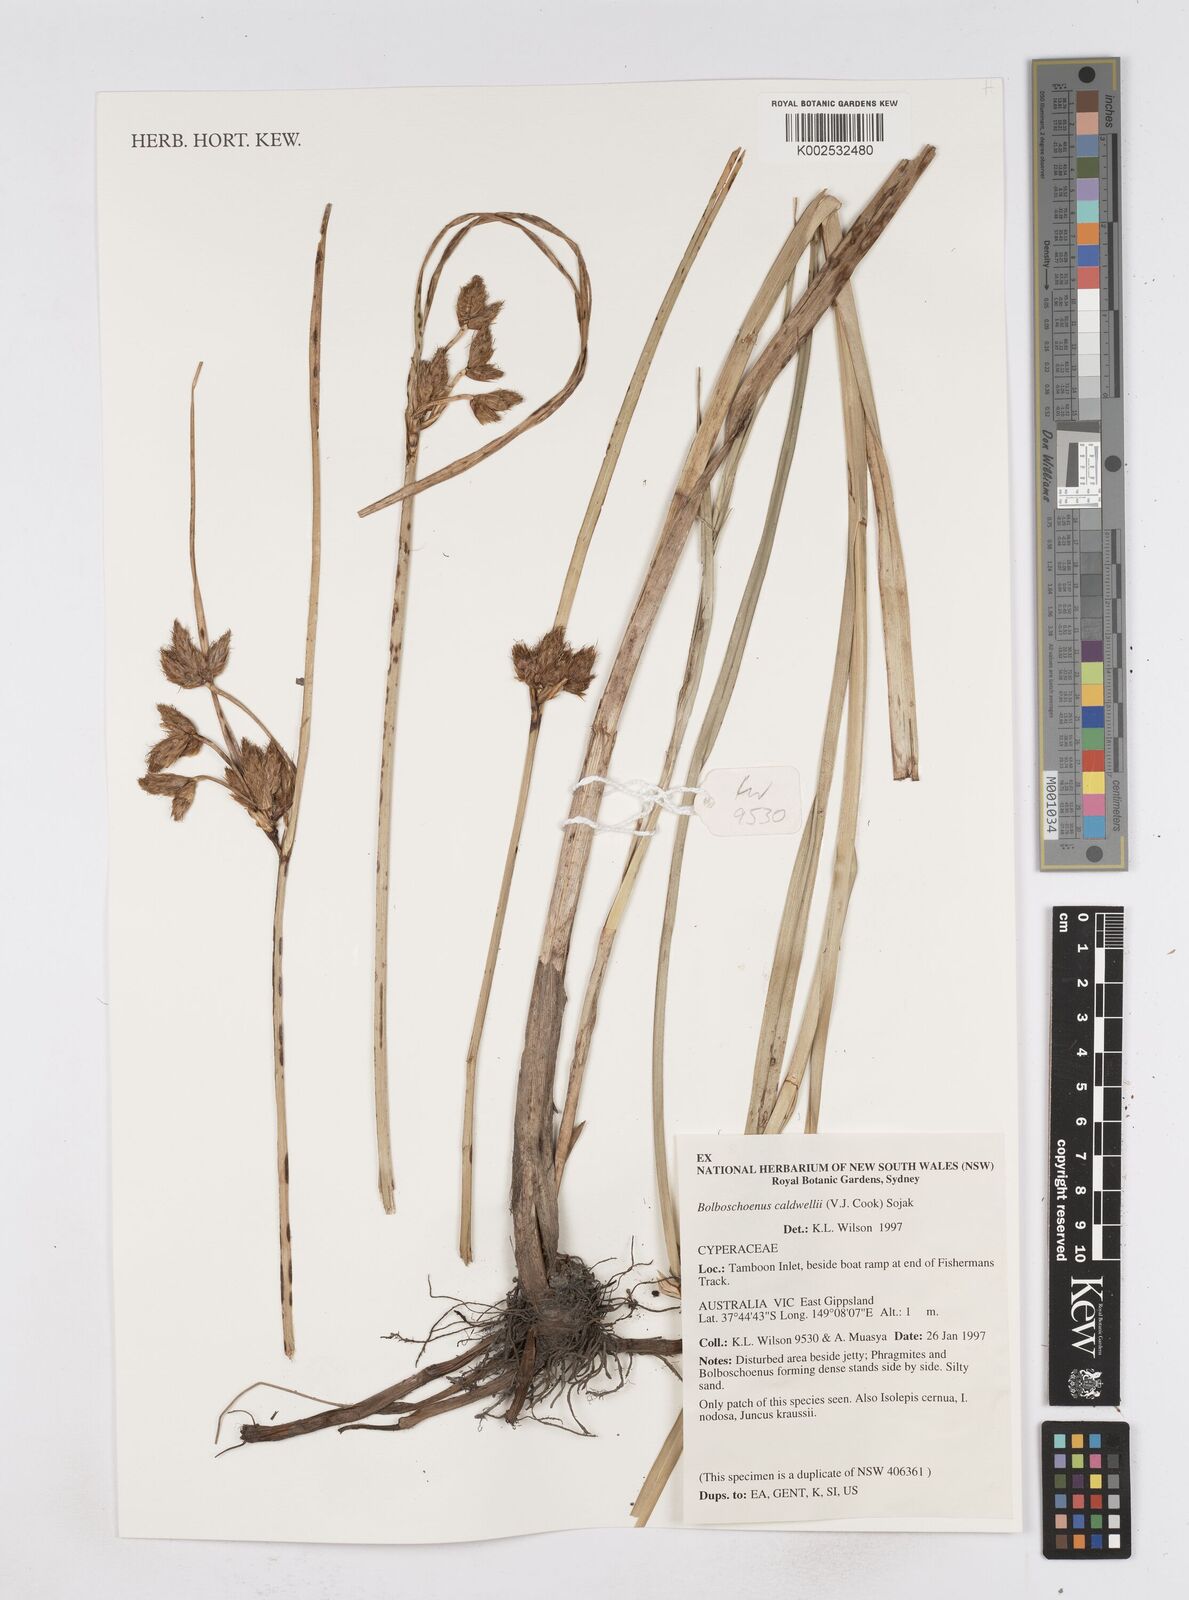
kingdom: Plantae
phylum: Tracheophyta
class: Liliopsida
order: Poales
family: Cyperaceae
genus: Bolboschoenus
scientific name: Bolboschoenus caldwellii
